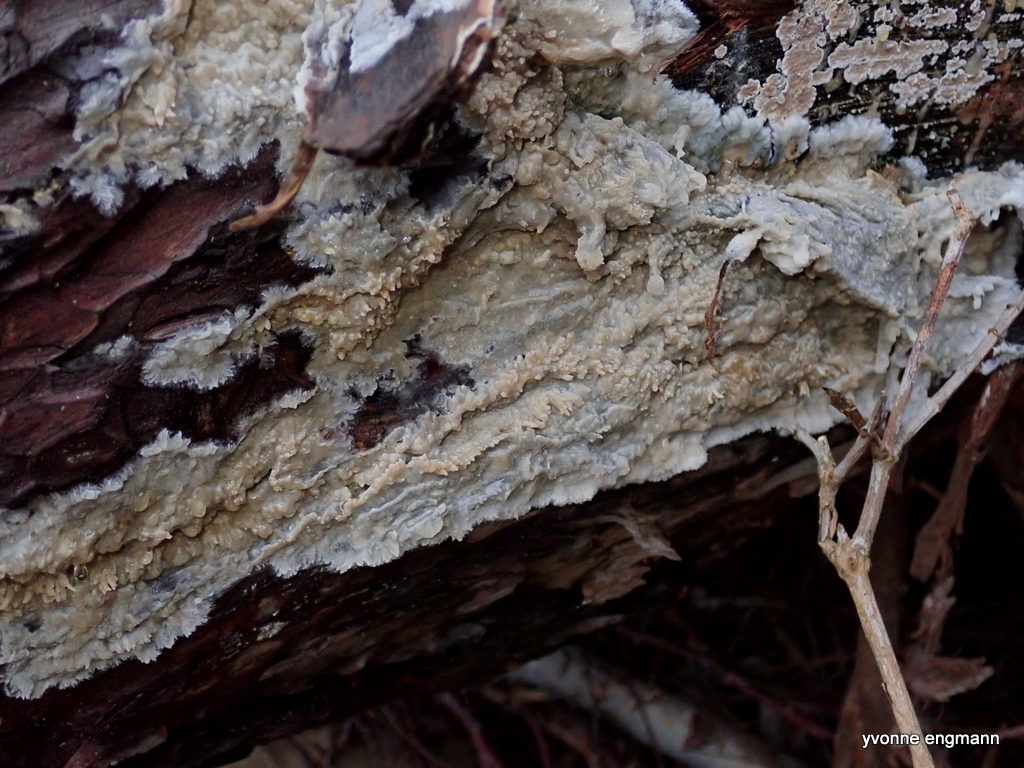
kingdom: Fungi
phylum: Basidiomycota
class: Agaricomycetes
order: Polyporales
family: Phanerochaetaceae
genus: Phlebiopsis
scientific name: Phlebiopsis gigantea
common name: kæmpebarksvamp
